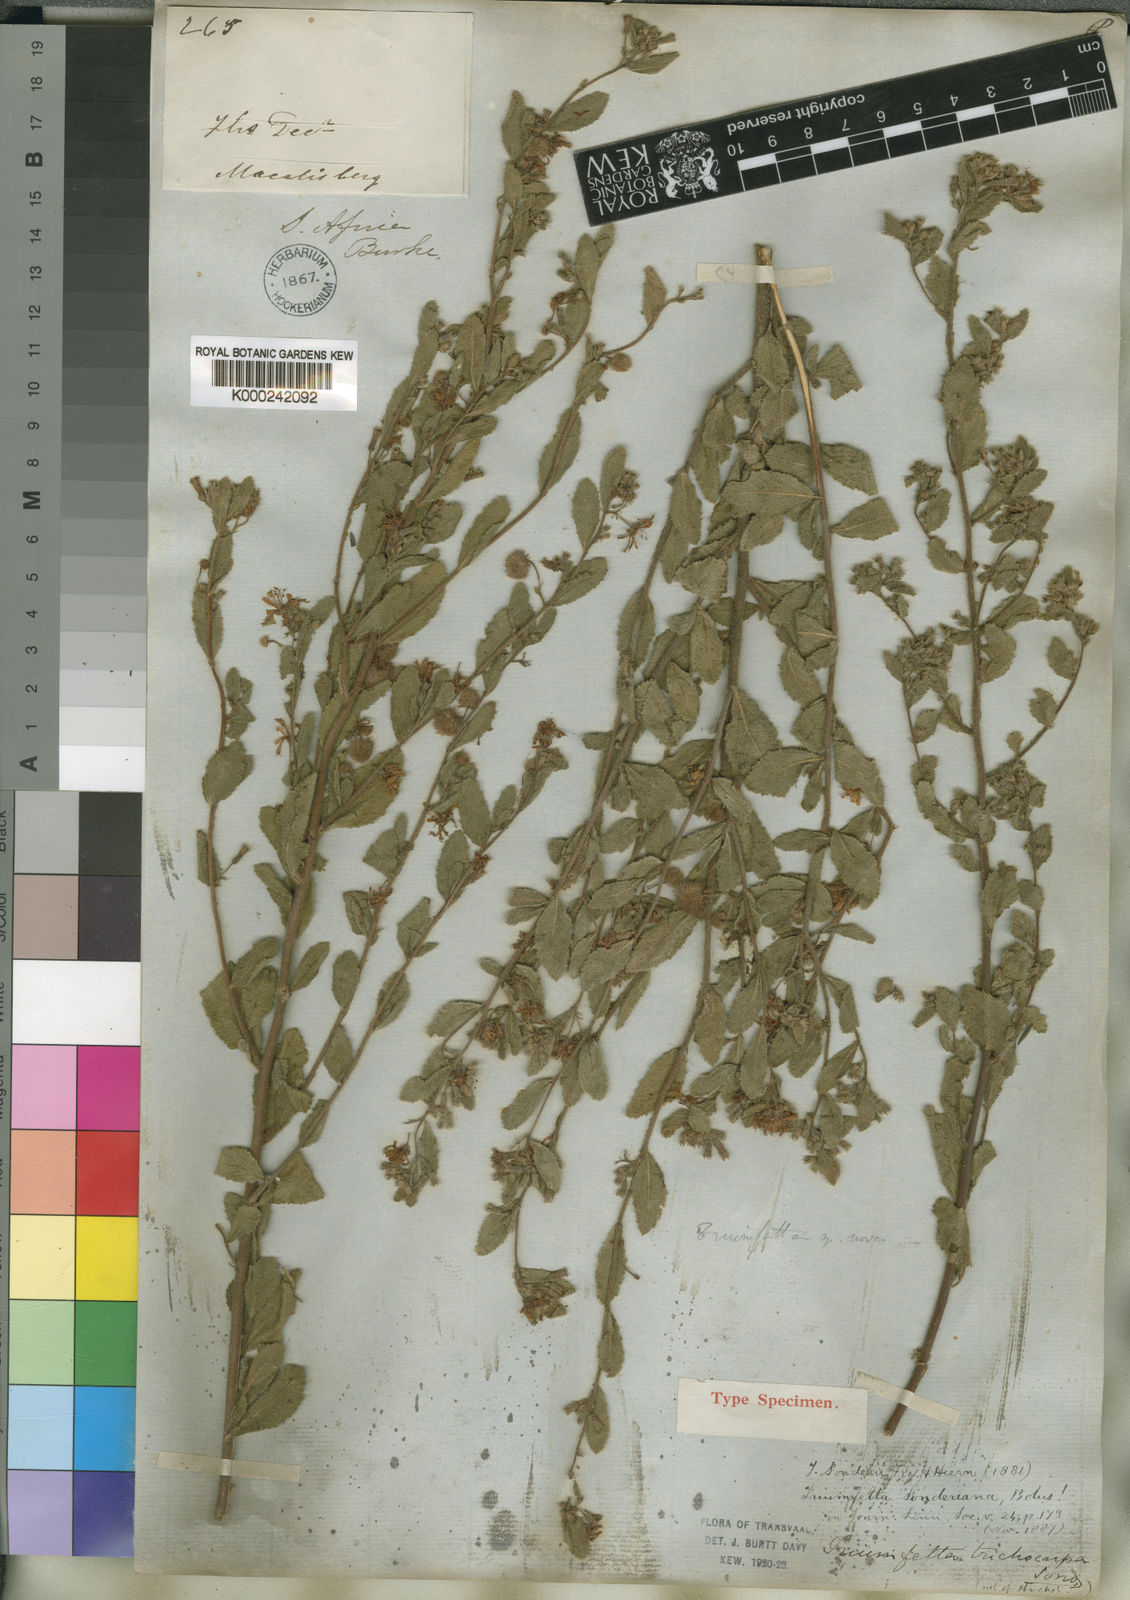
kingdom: Plantae
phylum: Tracheophyta
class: Magnoliopsida
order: Malvales
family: Malvaceae
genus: Triumfetta
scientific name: Triumfetta sonderi
